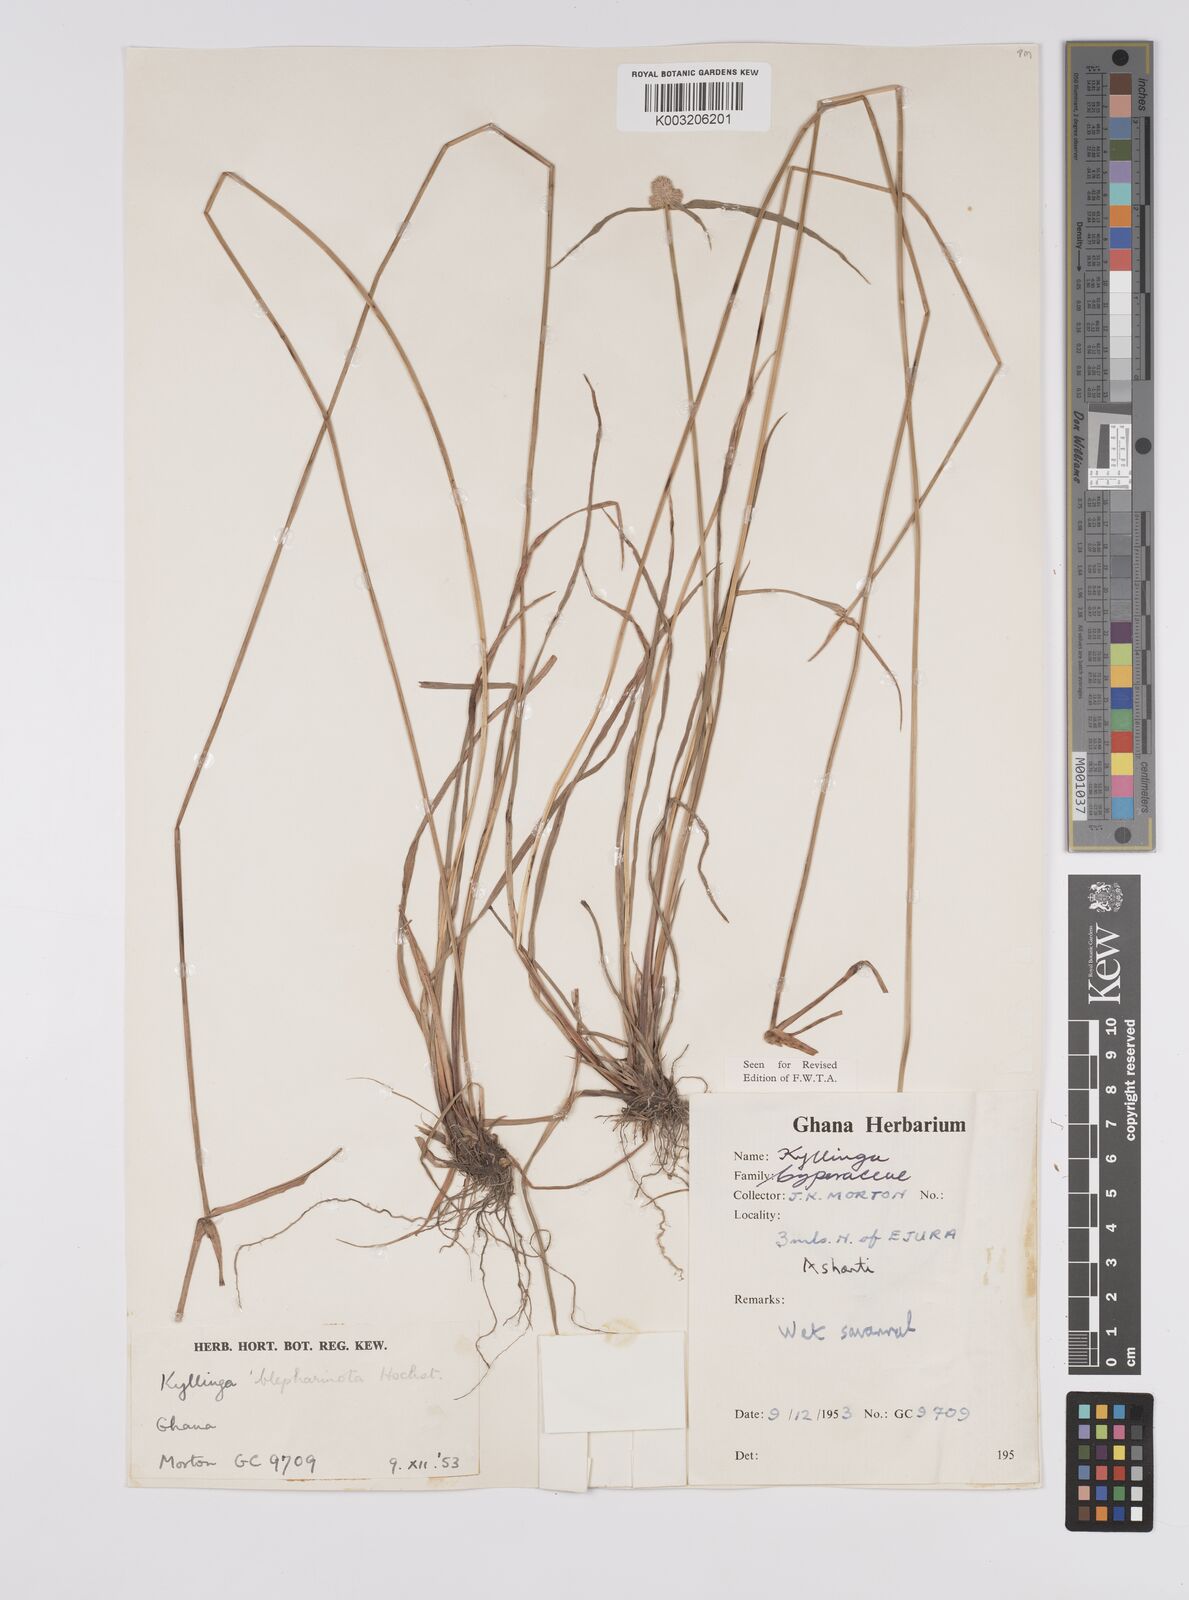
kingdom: Plantae
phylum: Tracheophyta
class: Liliopsida
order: Poales
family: Cyperaceae
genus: Cyperus
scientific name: Cyperus
